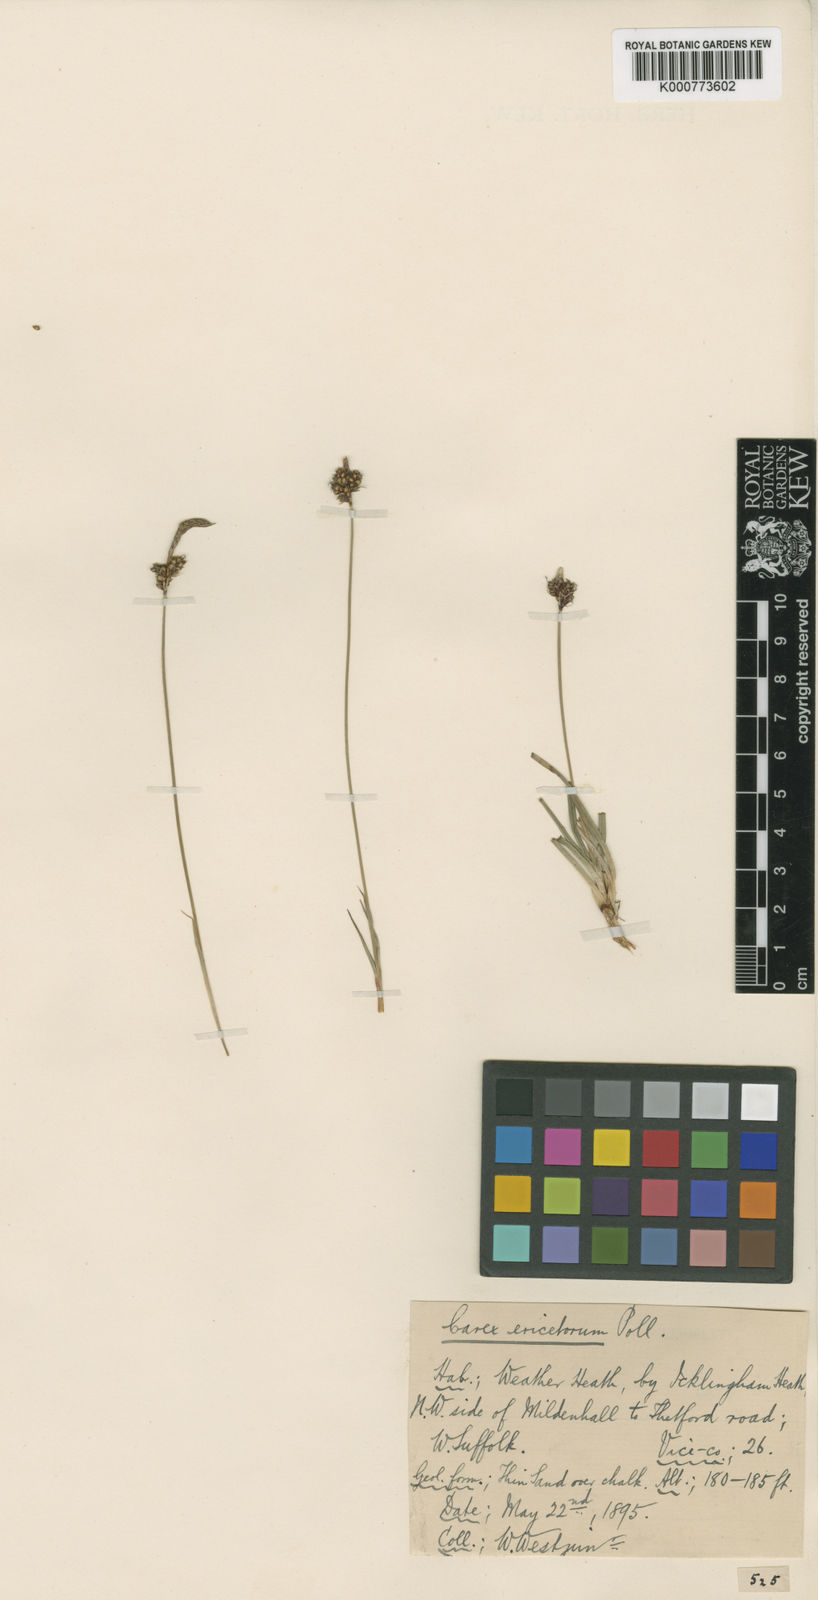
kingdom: Plantae
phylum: Tracheophyta
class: Liliopsida
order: Poales
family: Cyperaceae
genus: Carex
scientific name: Carex ericetorum
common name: Rare spring-sedge
